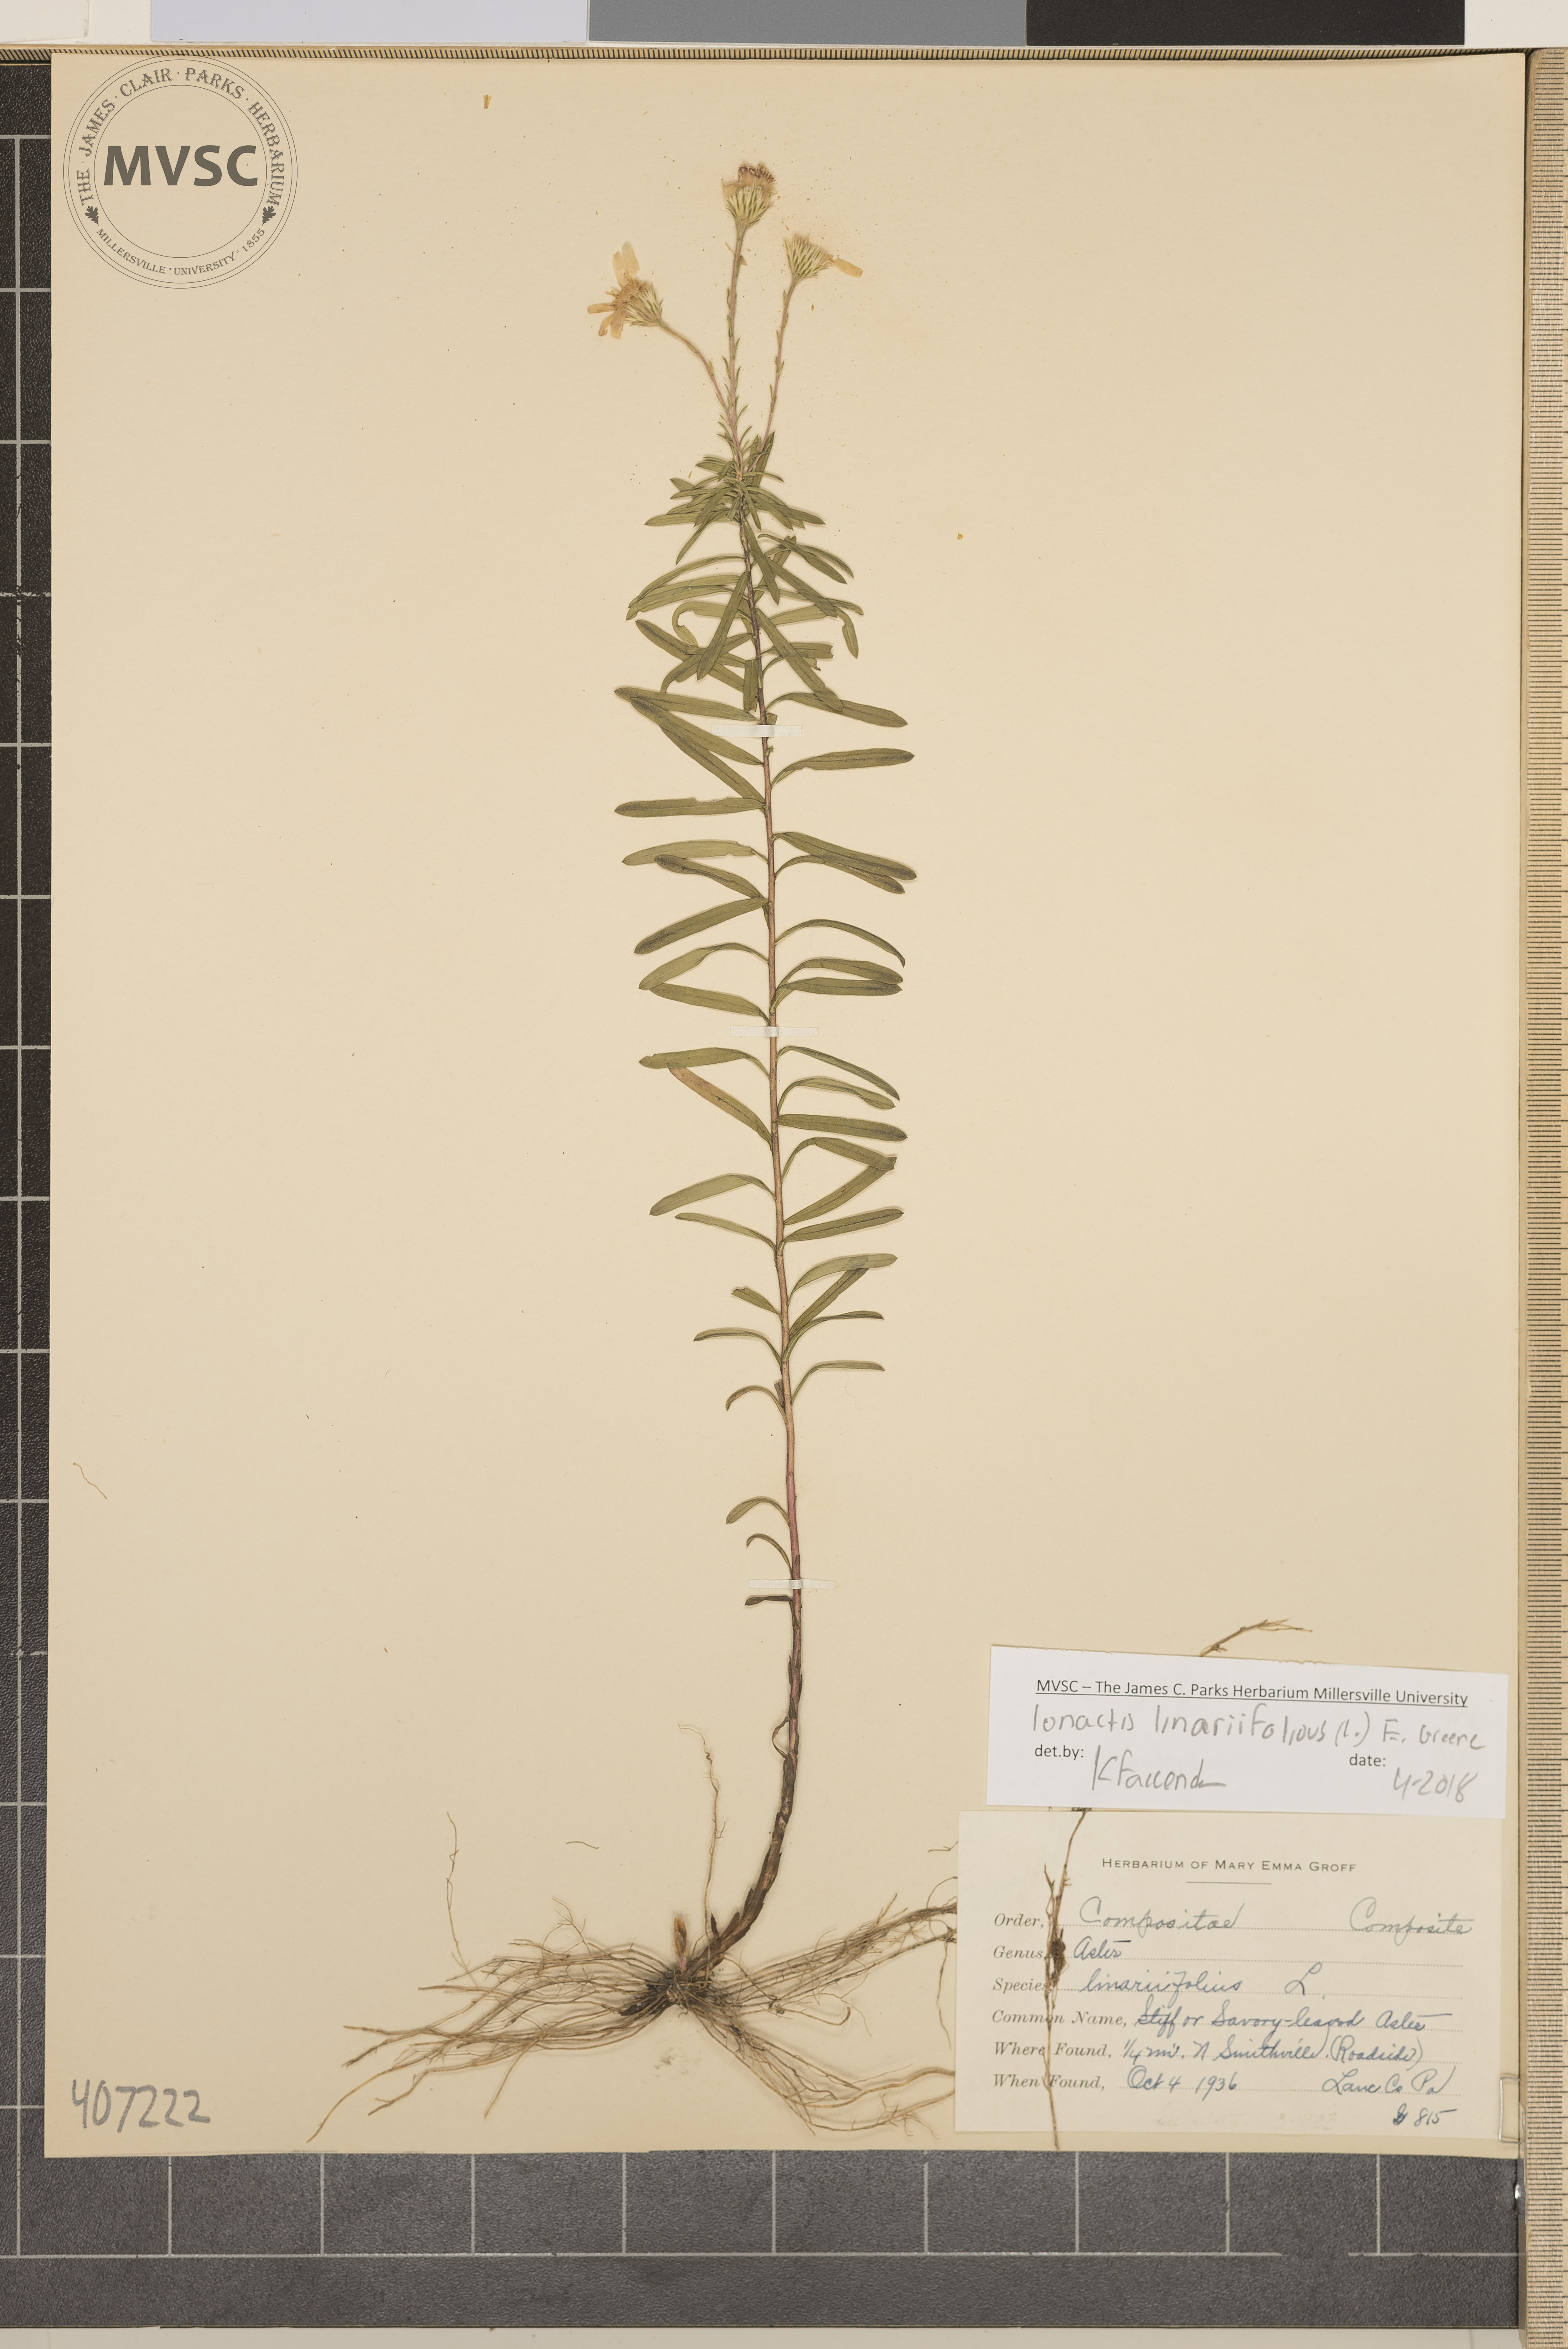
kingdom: Plantae
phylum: Tracheophyta
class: Magnoliopsida
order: Asterales
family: Asteraceae
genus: Ionactis
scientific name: Ionactis linariifolia
